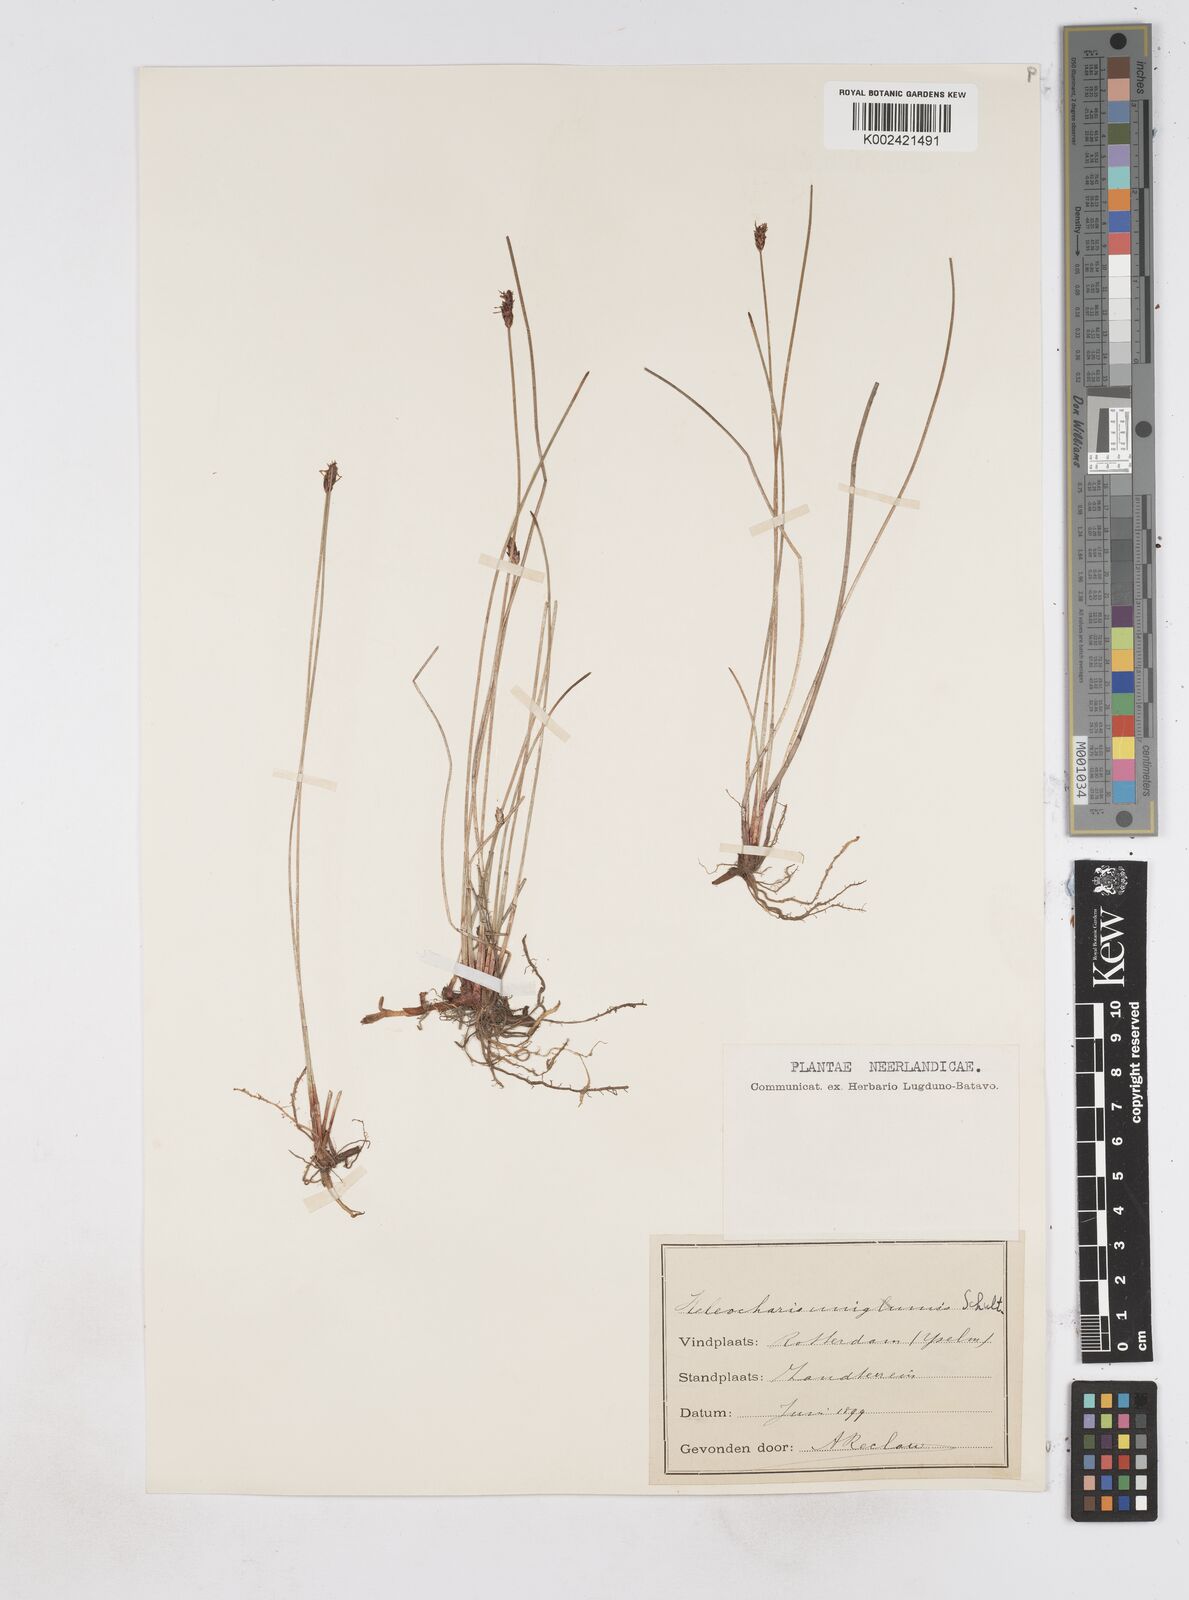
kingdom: Plantae
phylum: Tracheophyta
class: Liliopsida
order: Poales
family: Cyperaceae
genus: Eleocharis
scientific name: Eleocharis uniglumis
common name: Slender spike-rush
